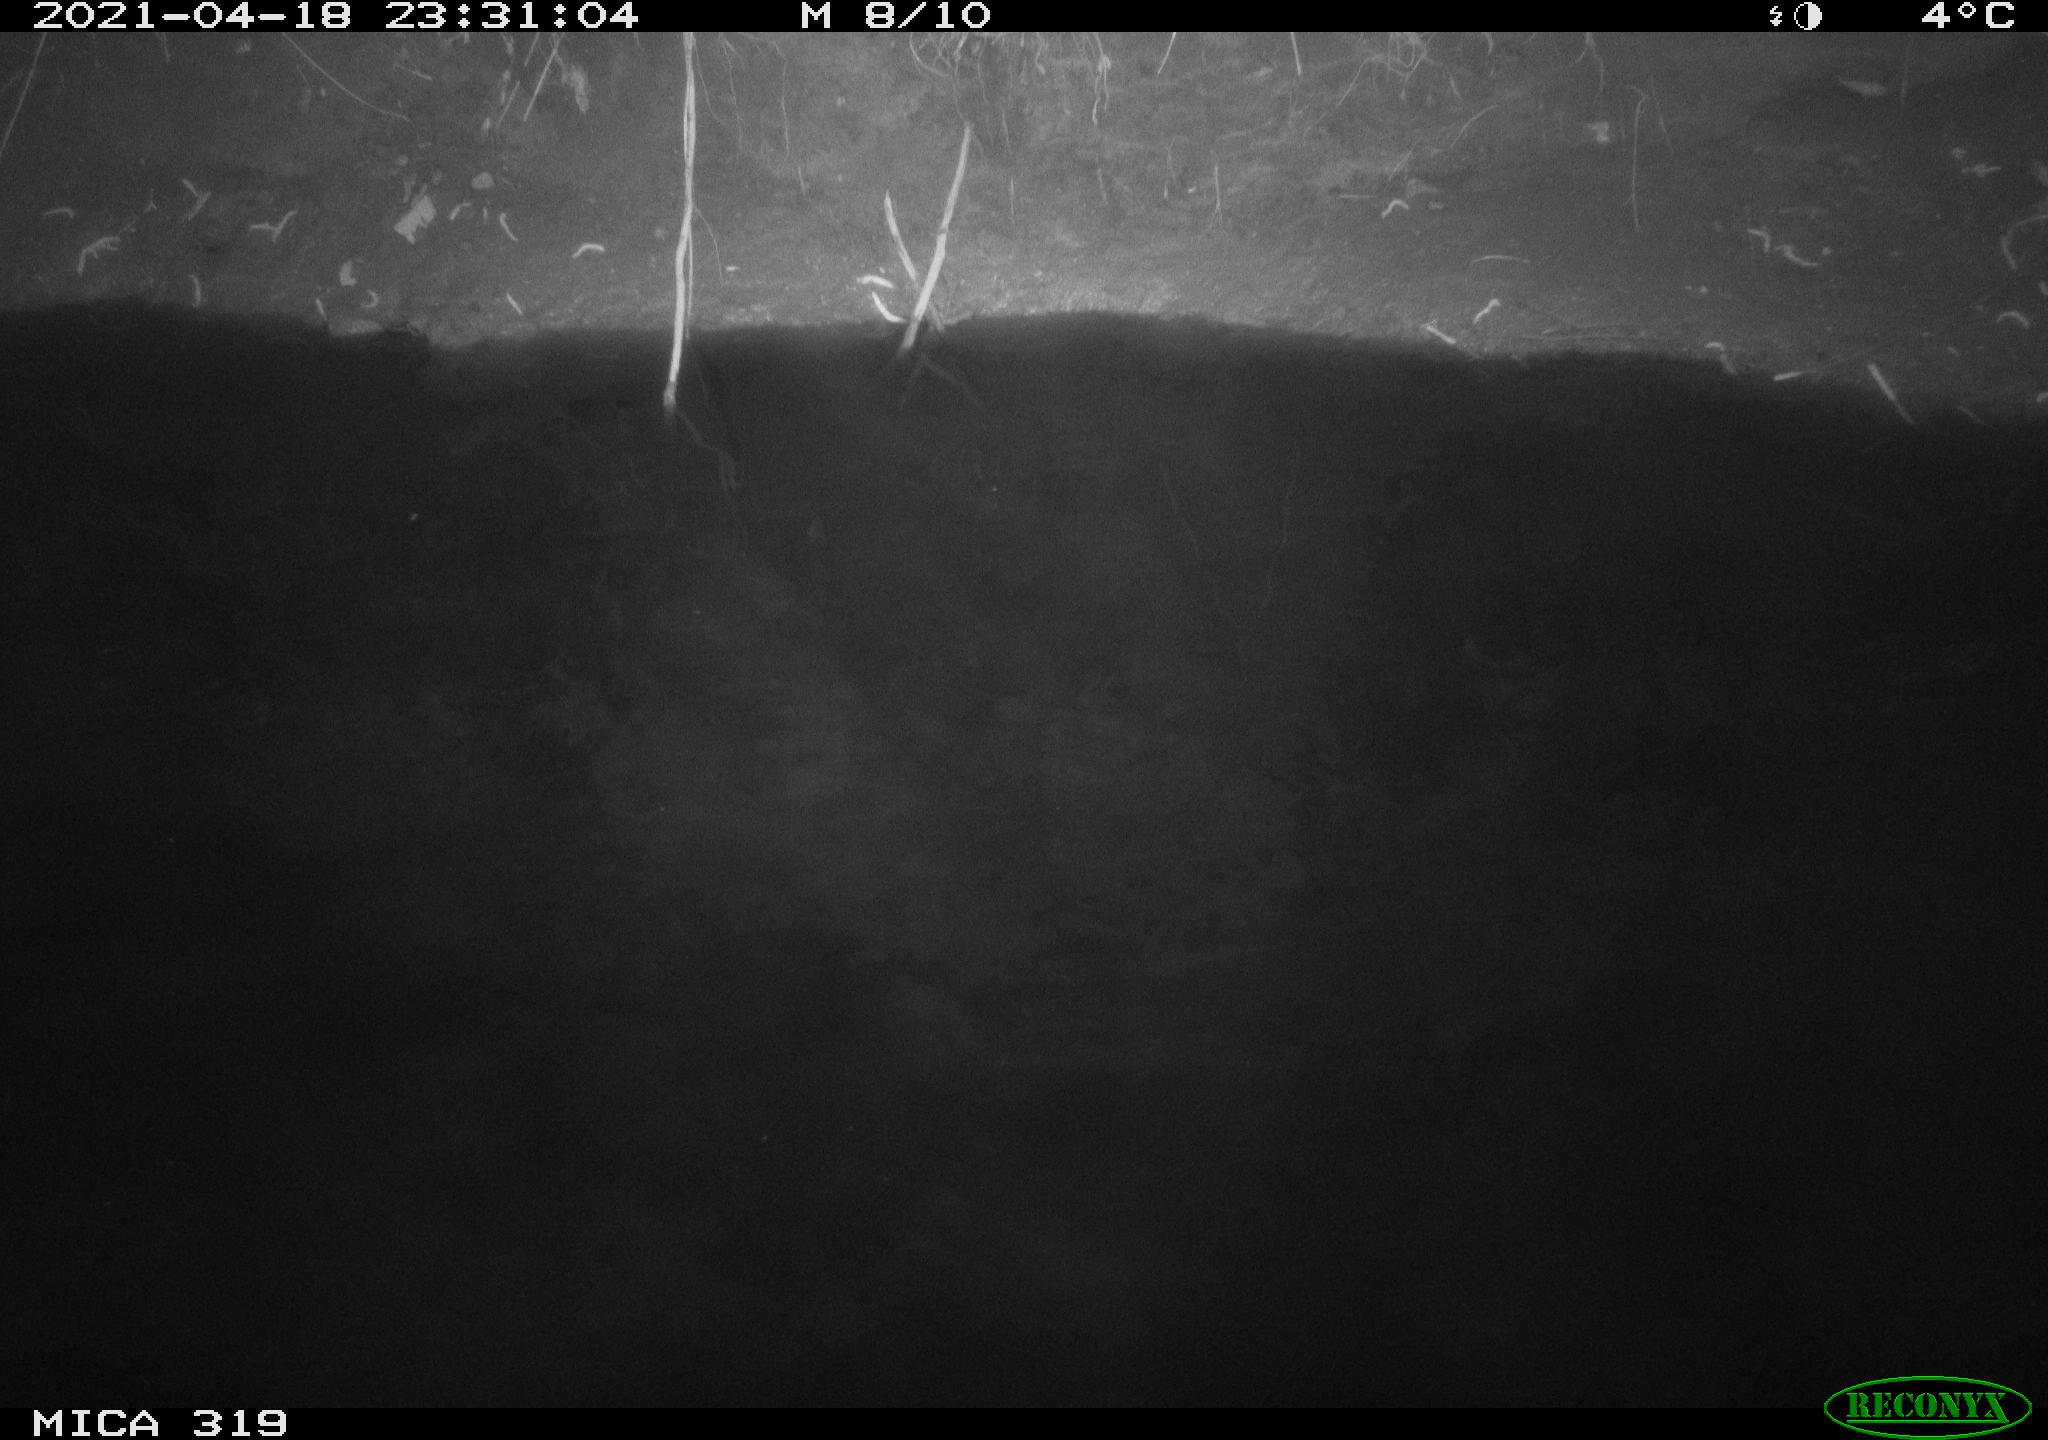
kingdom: Animalia
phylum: Chordata
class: Aves
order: Anseriformes
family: Anatidae
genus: Anas
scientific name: Anas platyrhynchos
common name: Mallard
